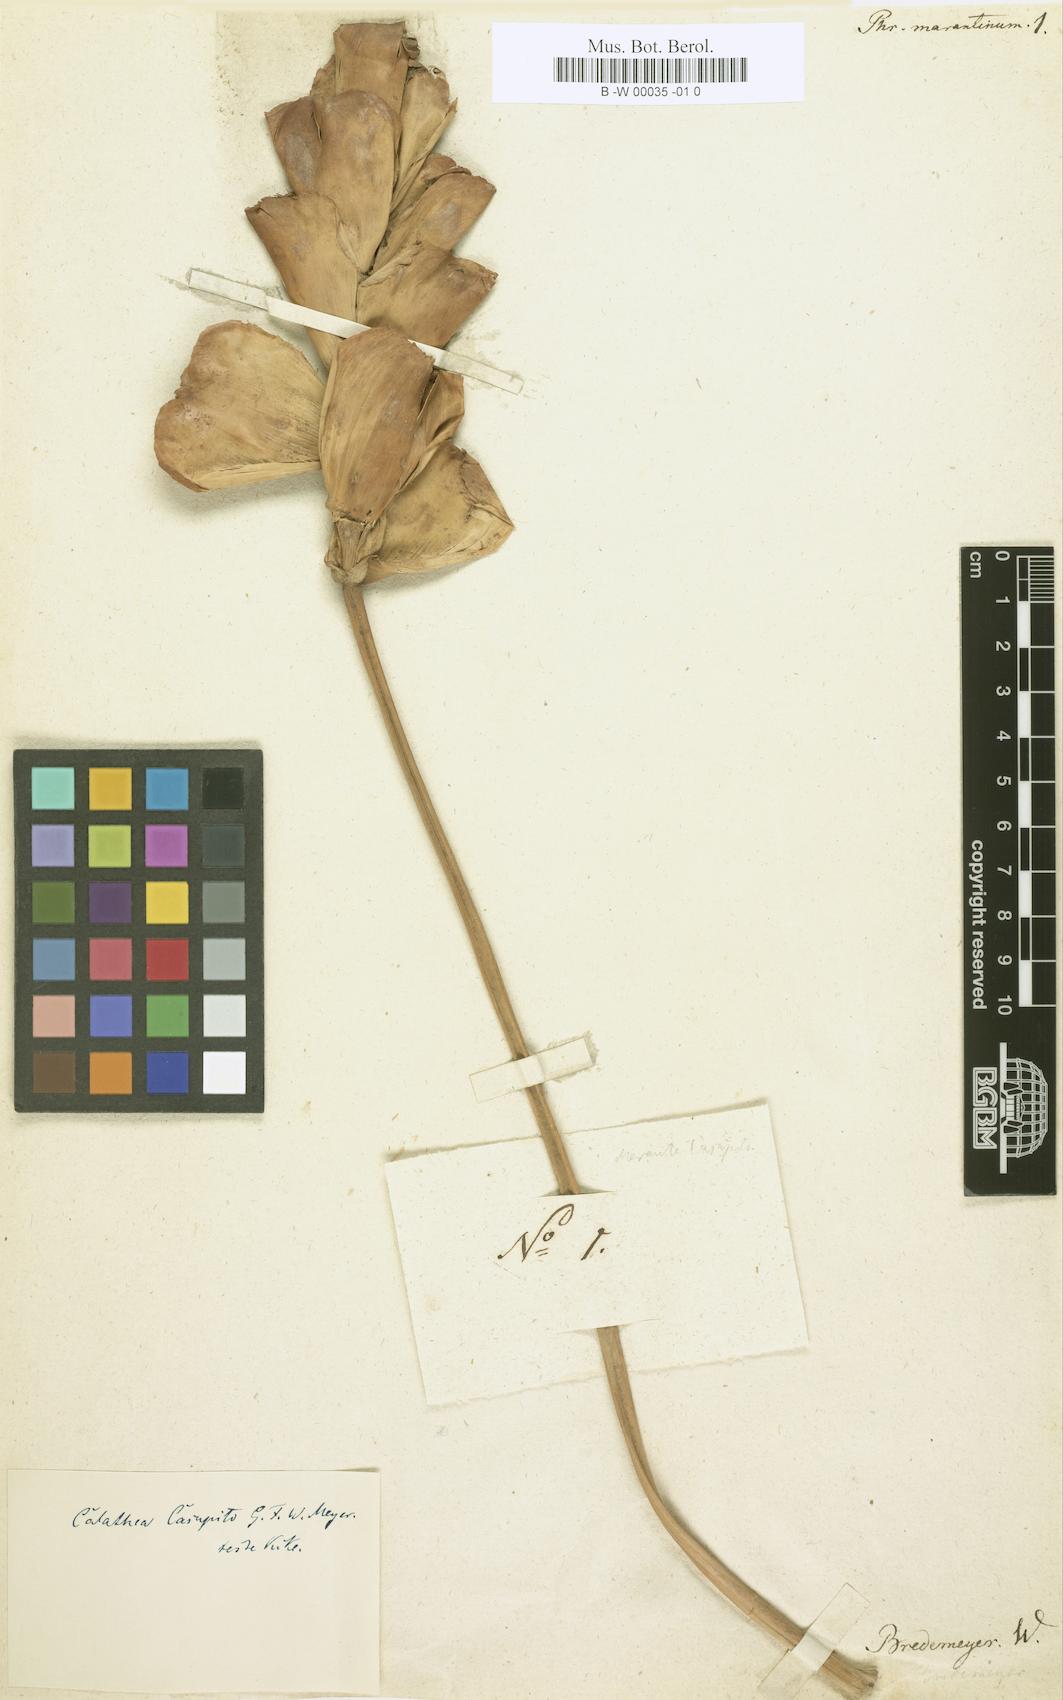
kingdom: Plantae
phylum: Tracheophyta
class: Liliopsida
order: Zingiberales
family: Marantaceae
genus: Calathea
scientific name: Calathea marantina
